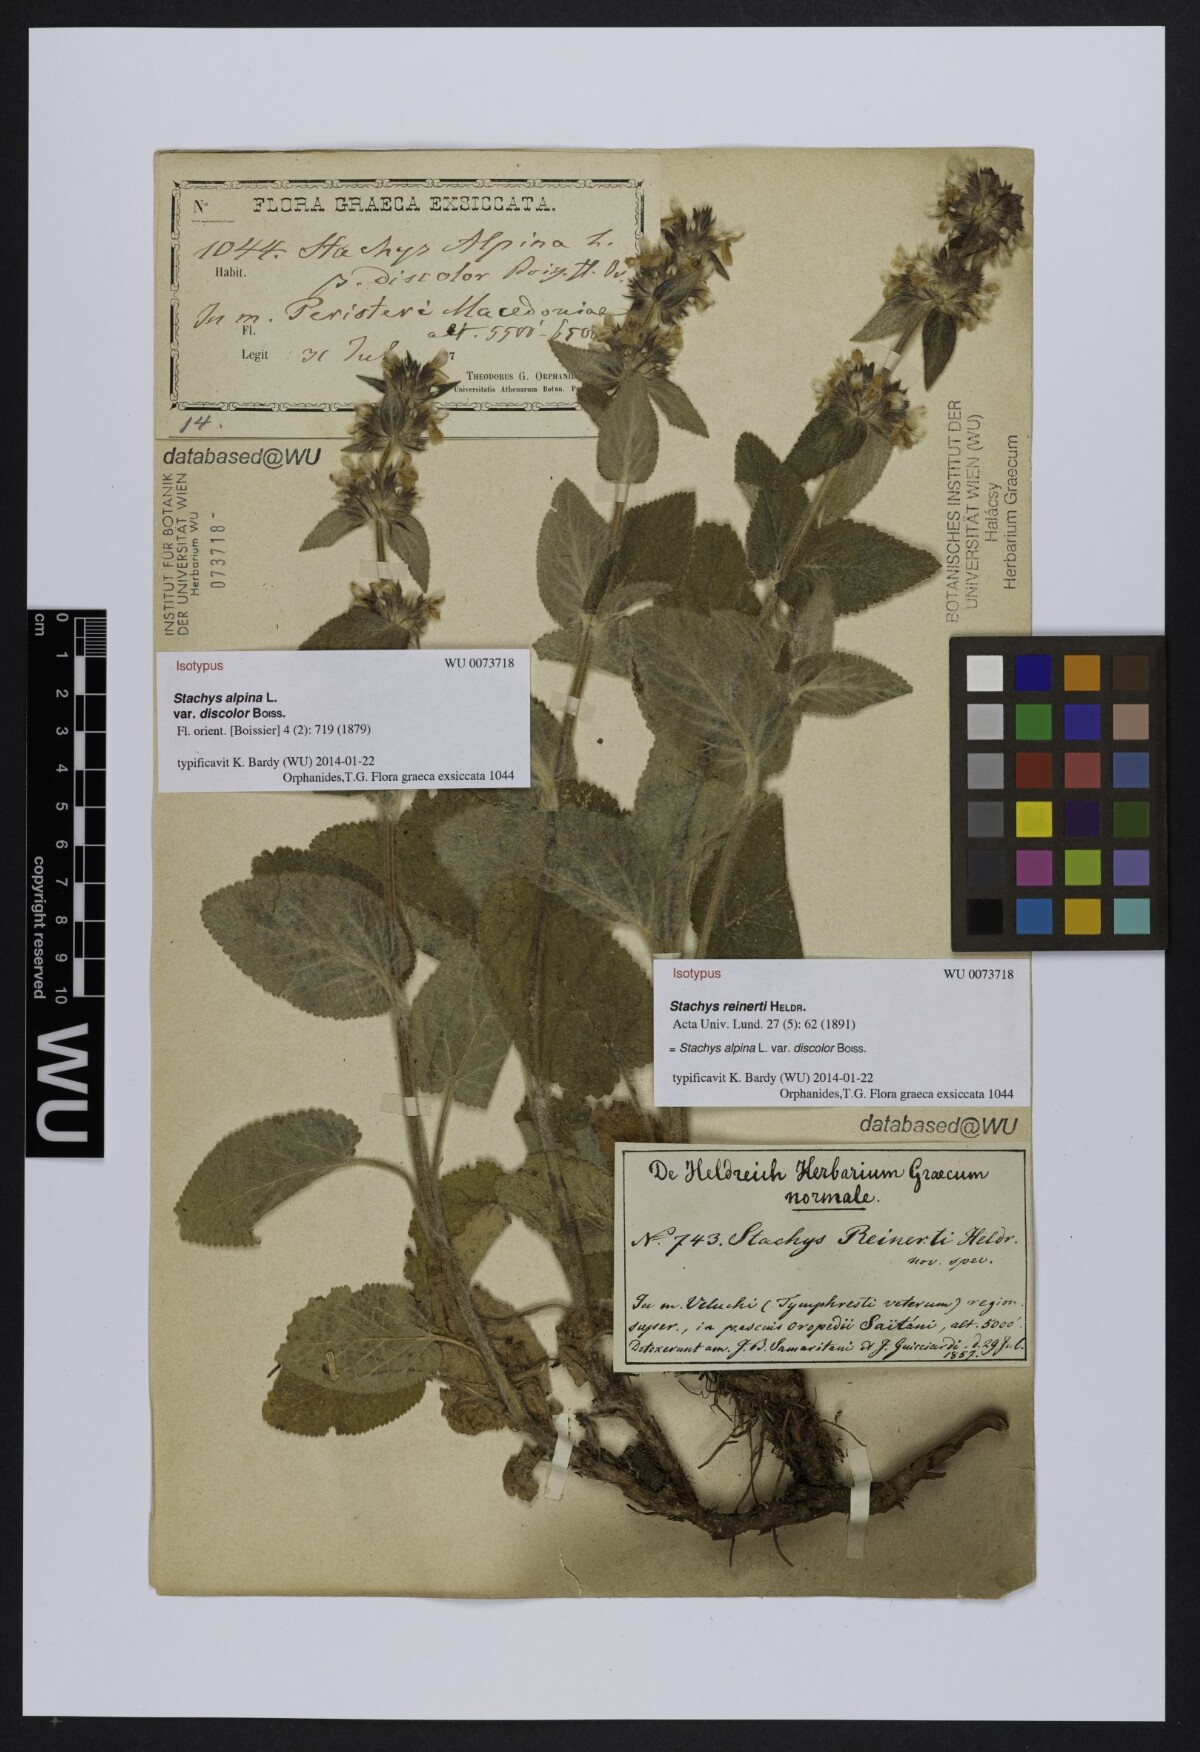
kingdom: Plantae
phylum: Tracheophyta
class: Magnoliopsida
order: Lamiales
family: Lamiaceae
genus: Stachys
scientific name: Stachys alpina
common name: Limestone woundwort
